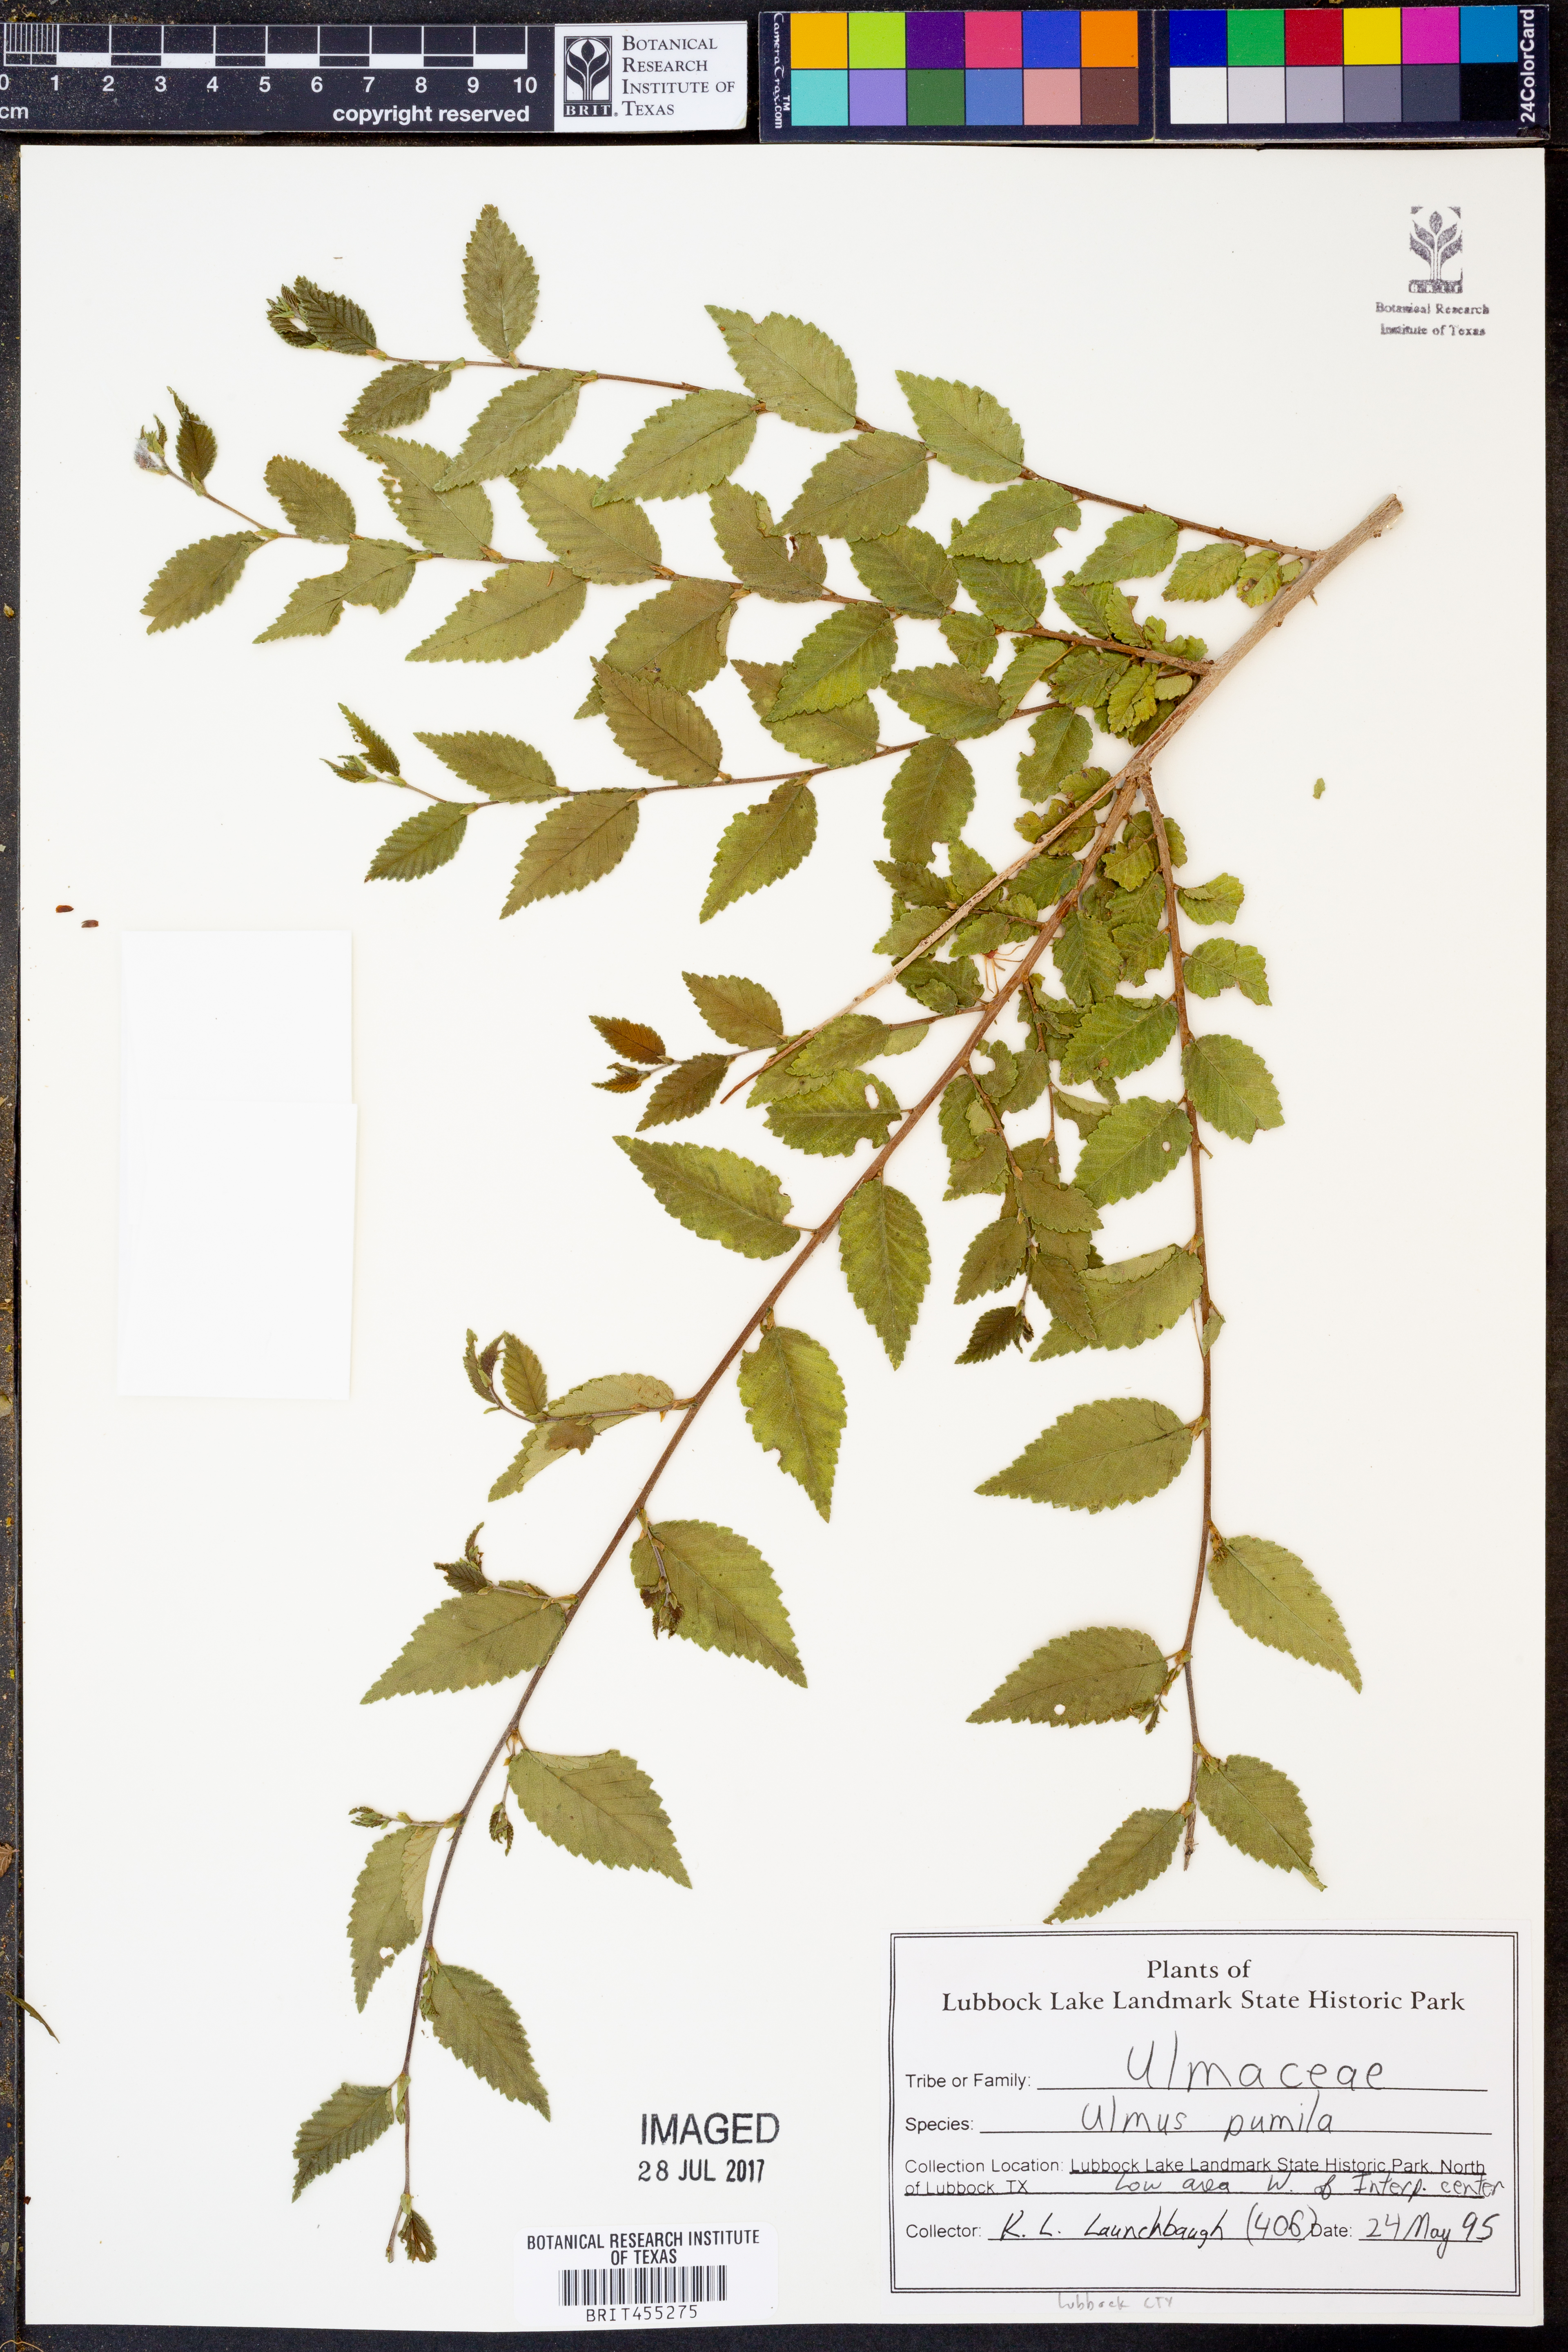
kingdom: Plantae
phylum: Tracheophyta
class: Magnoliopsida
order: Rosales
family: Ulmaceae
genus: Ulmus
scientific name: Ulmus pumila
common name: Siberian elm
